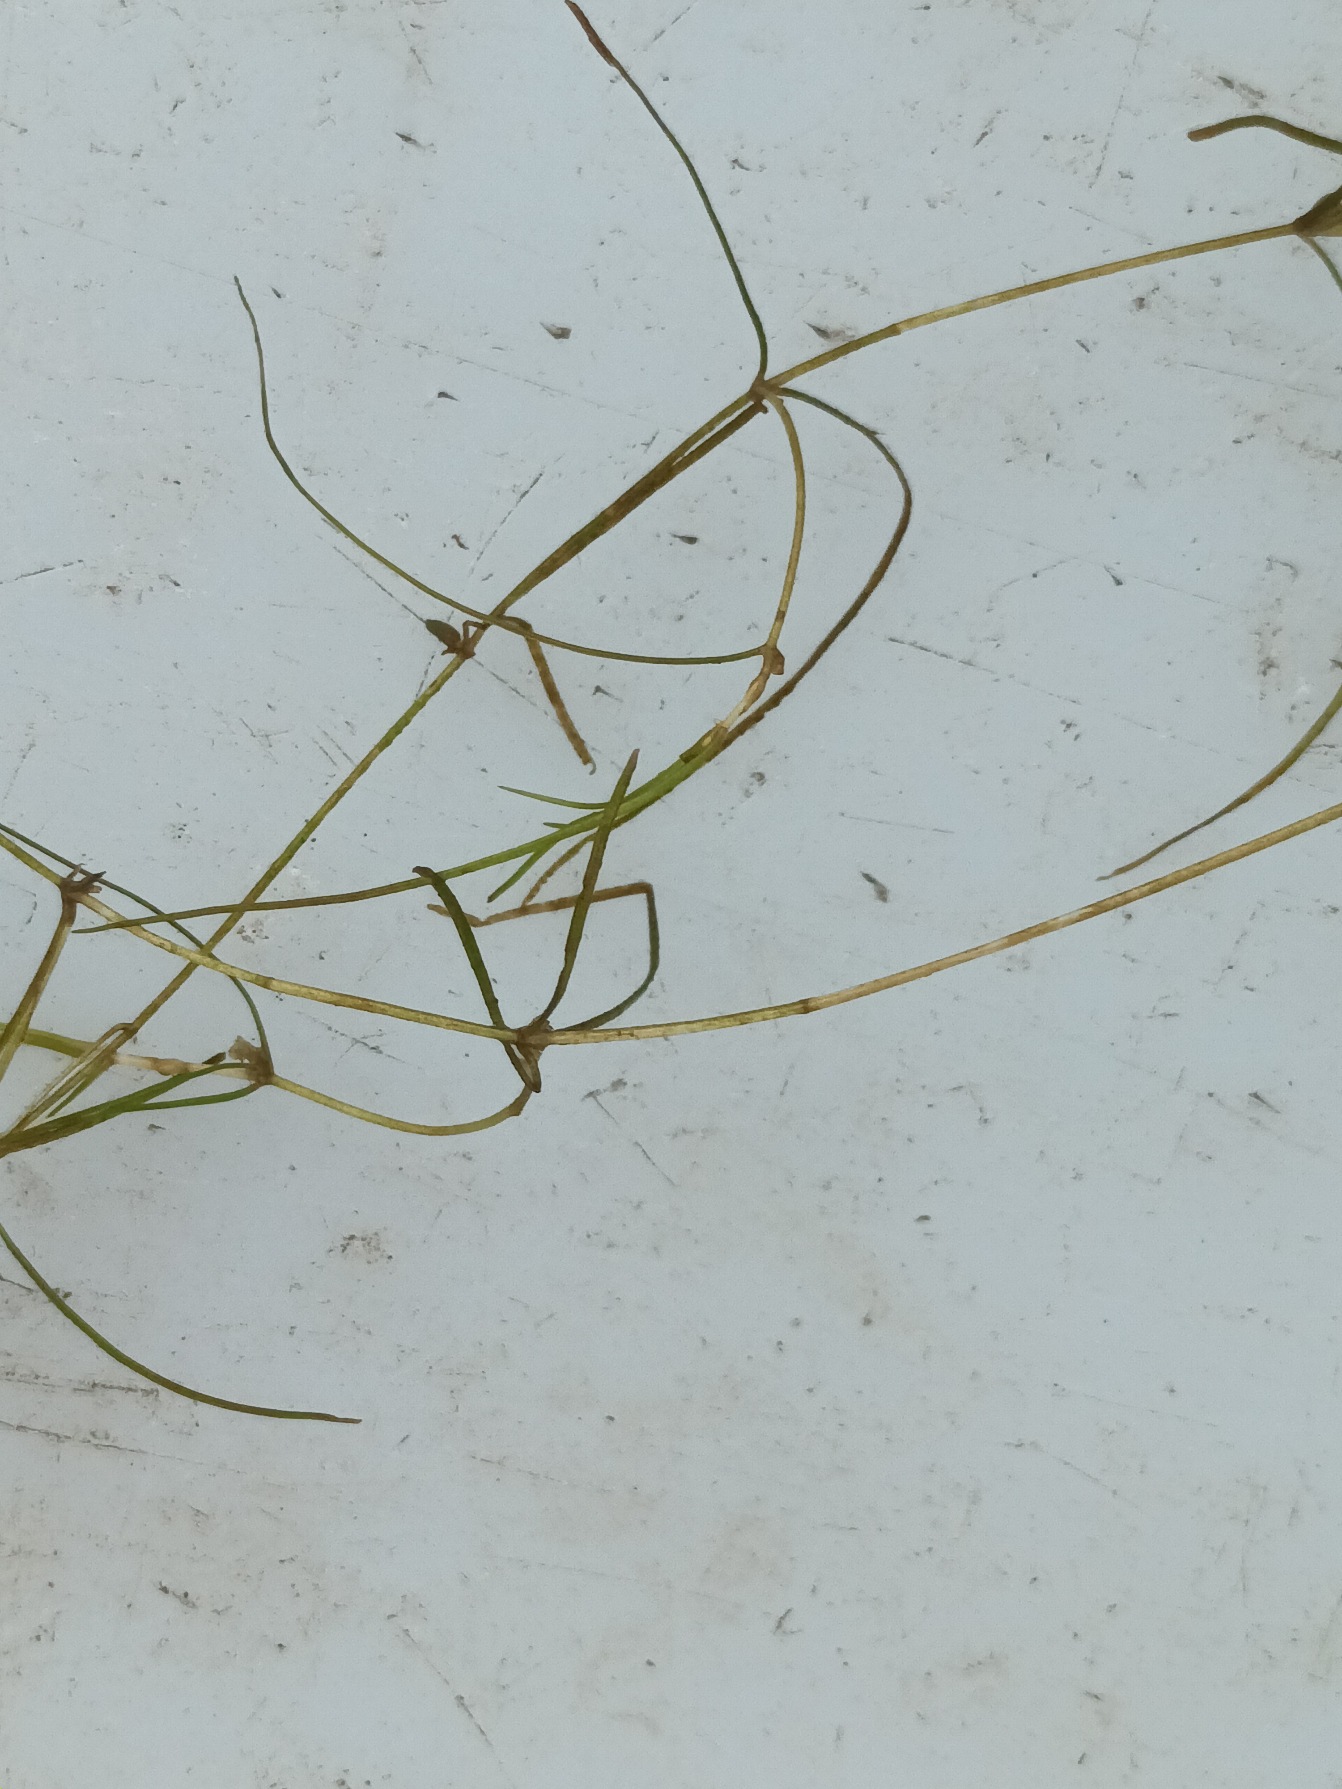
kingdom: Plantae
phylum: Tracheophyta
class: Liliopsida
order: Alismatales
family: Potamogetonaceae
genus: Zannichellia
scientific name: Zannichellia palustris
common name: Vandkrans
